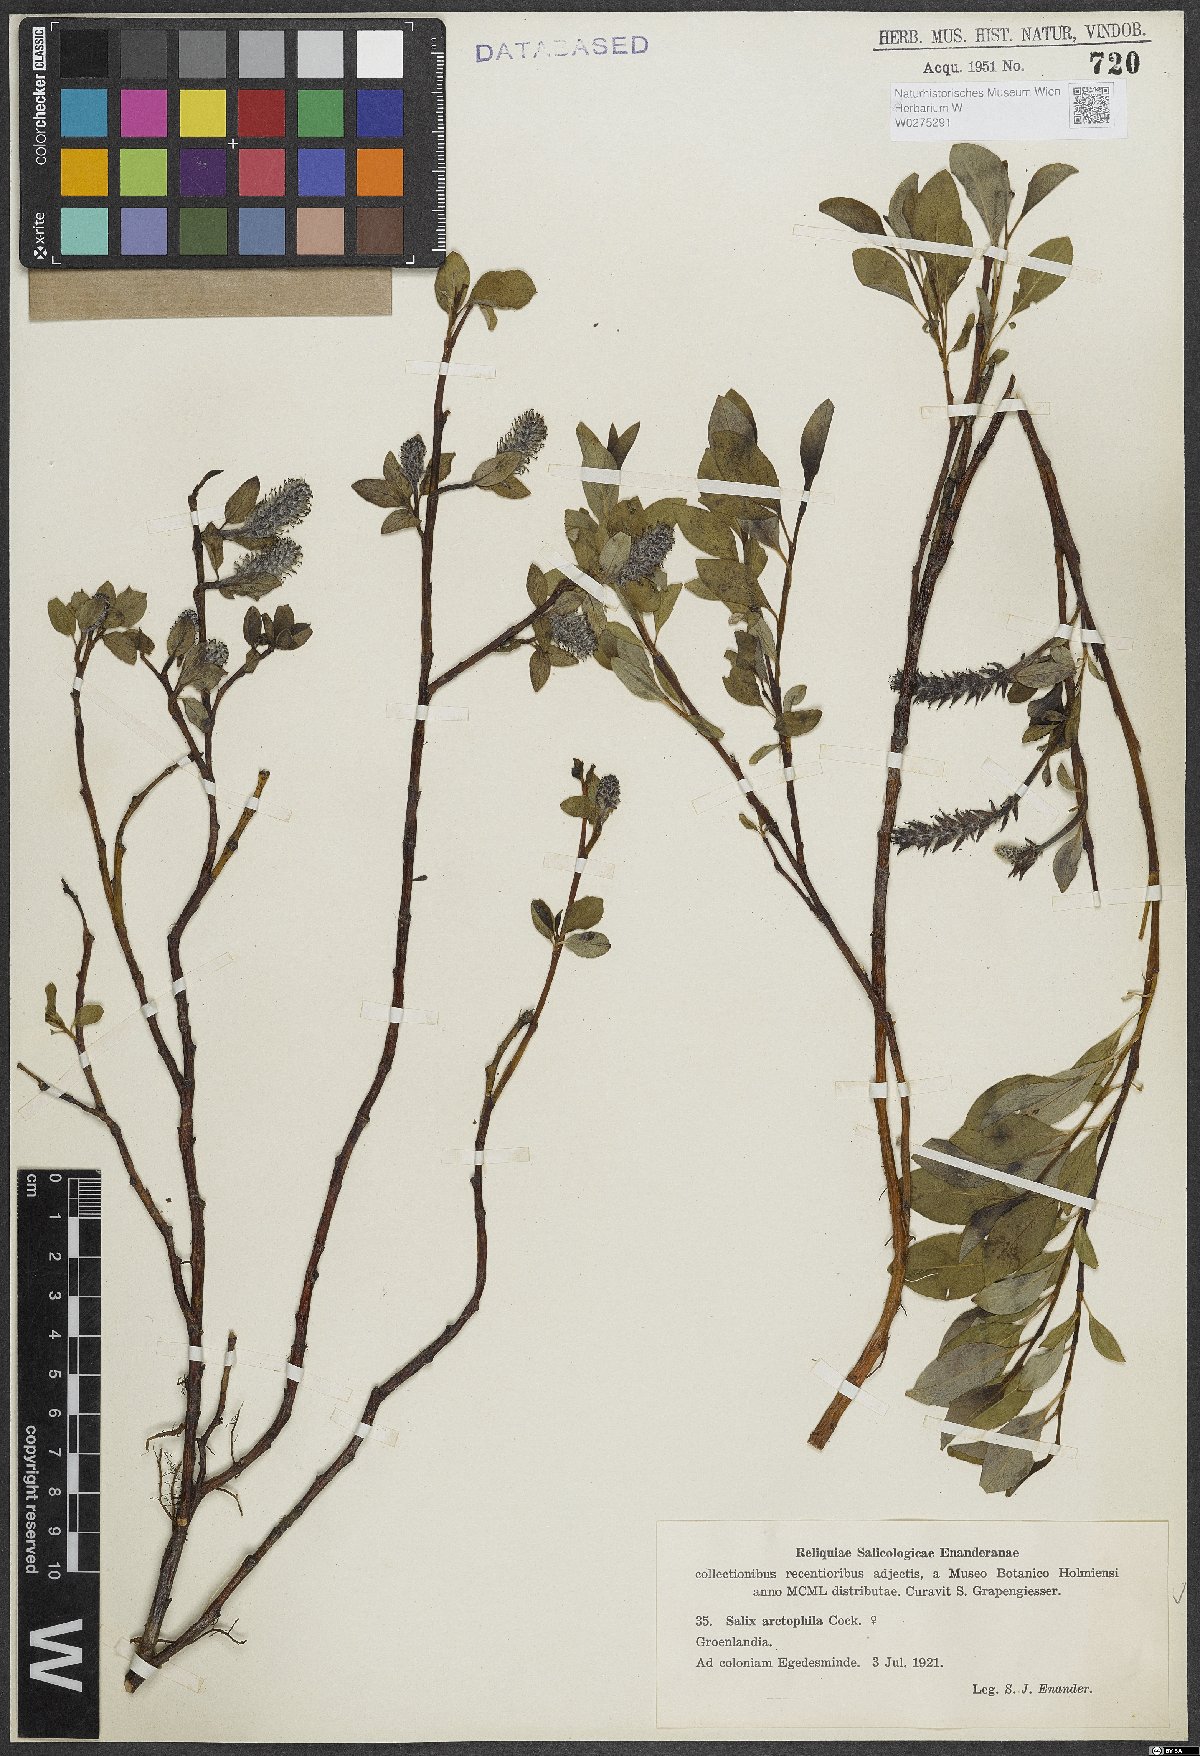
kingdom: Plantae
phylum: Tracheophyta
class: Magnoliopsida
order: Malpighiales
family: Salicaceae
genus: Salix
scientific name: Salix arctophila
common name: Greenland willow
